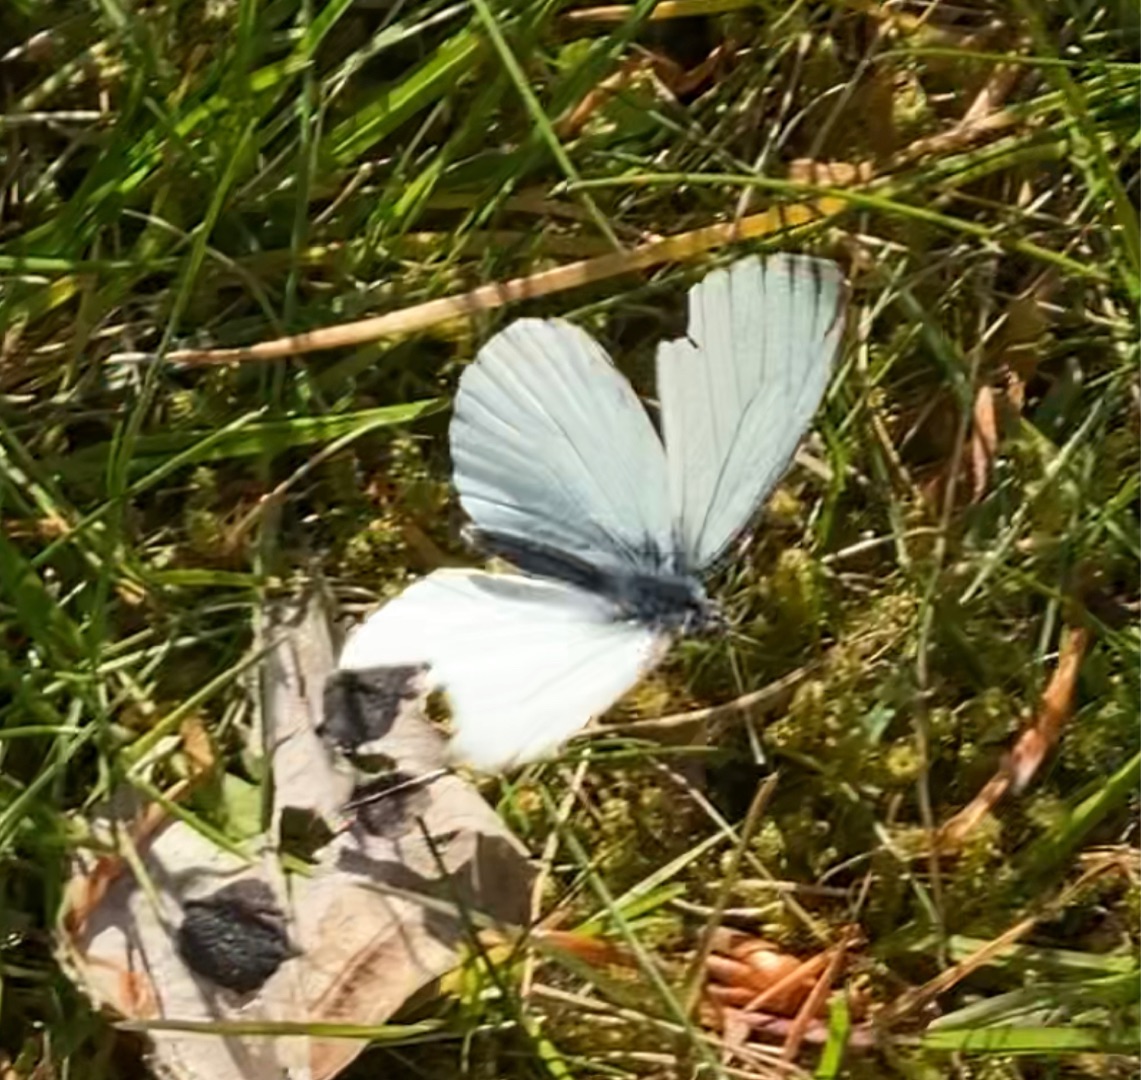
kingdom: Animalia
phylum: Arthropoda
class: Insecta
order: Lepidoptera
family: Pieridae
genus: Pieris
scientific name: Pieris napi
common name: Grønåret kålsommerfugl
